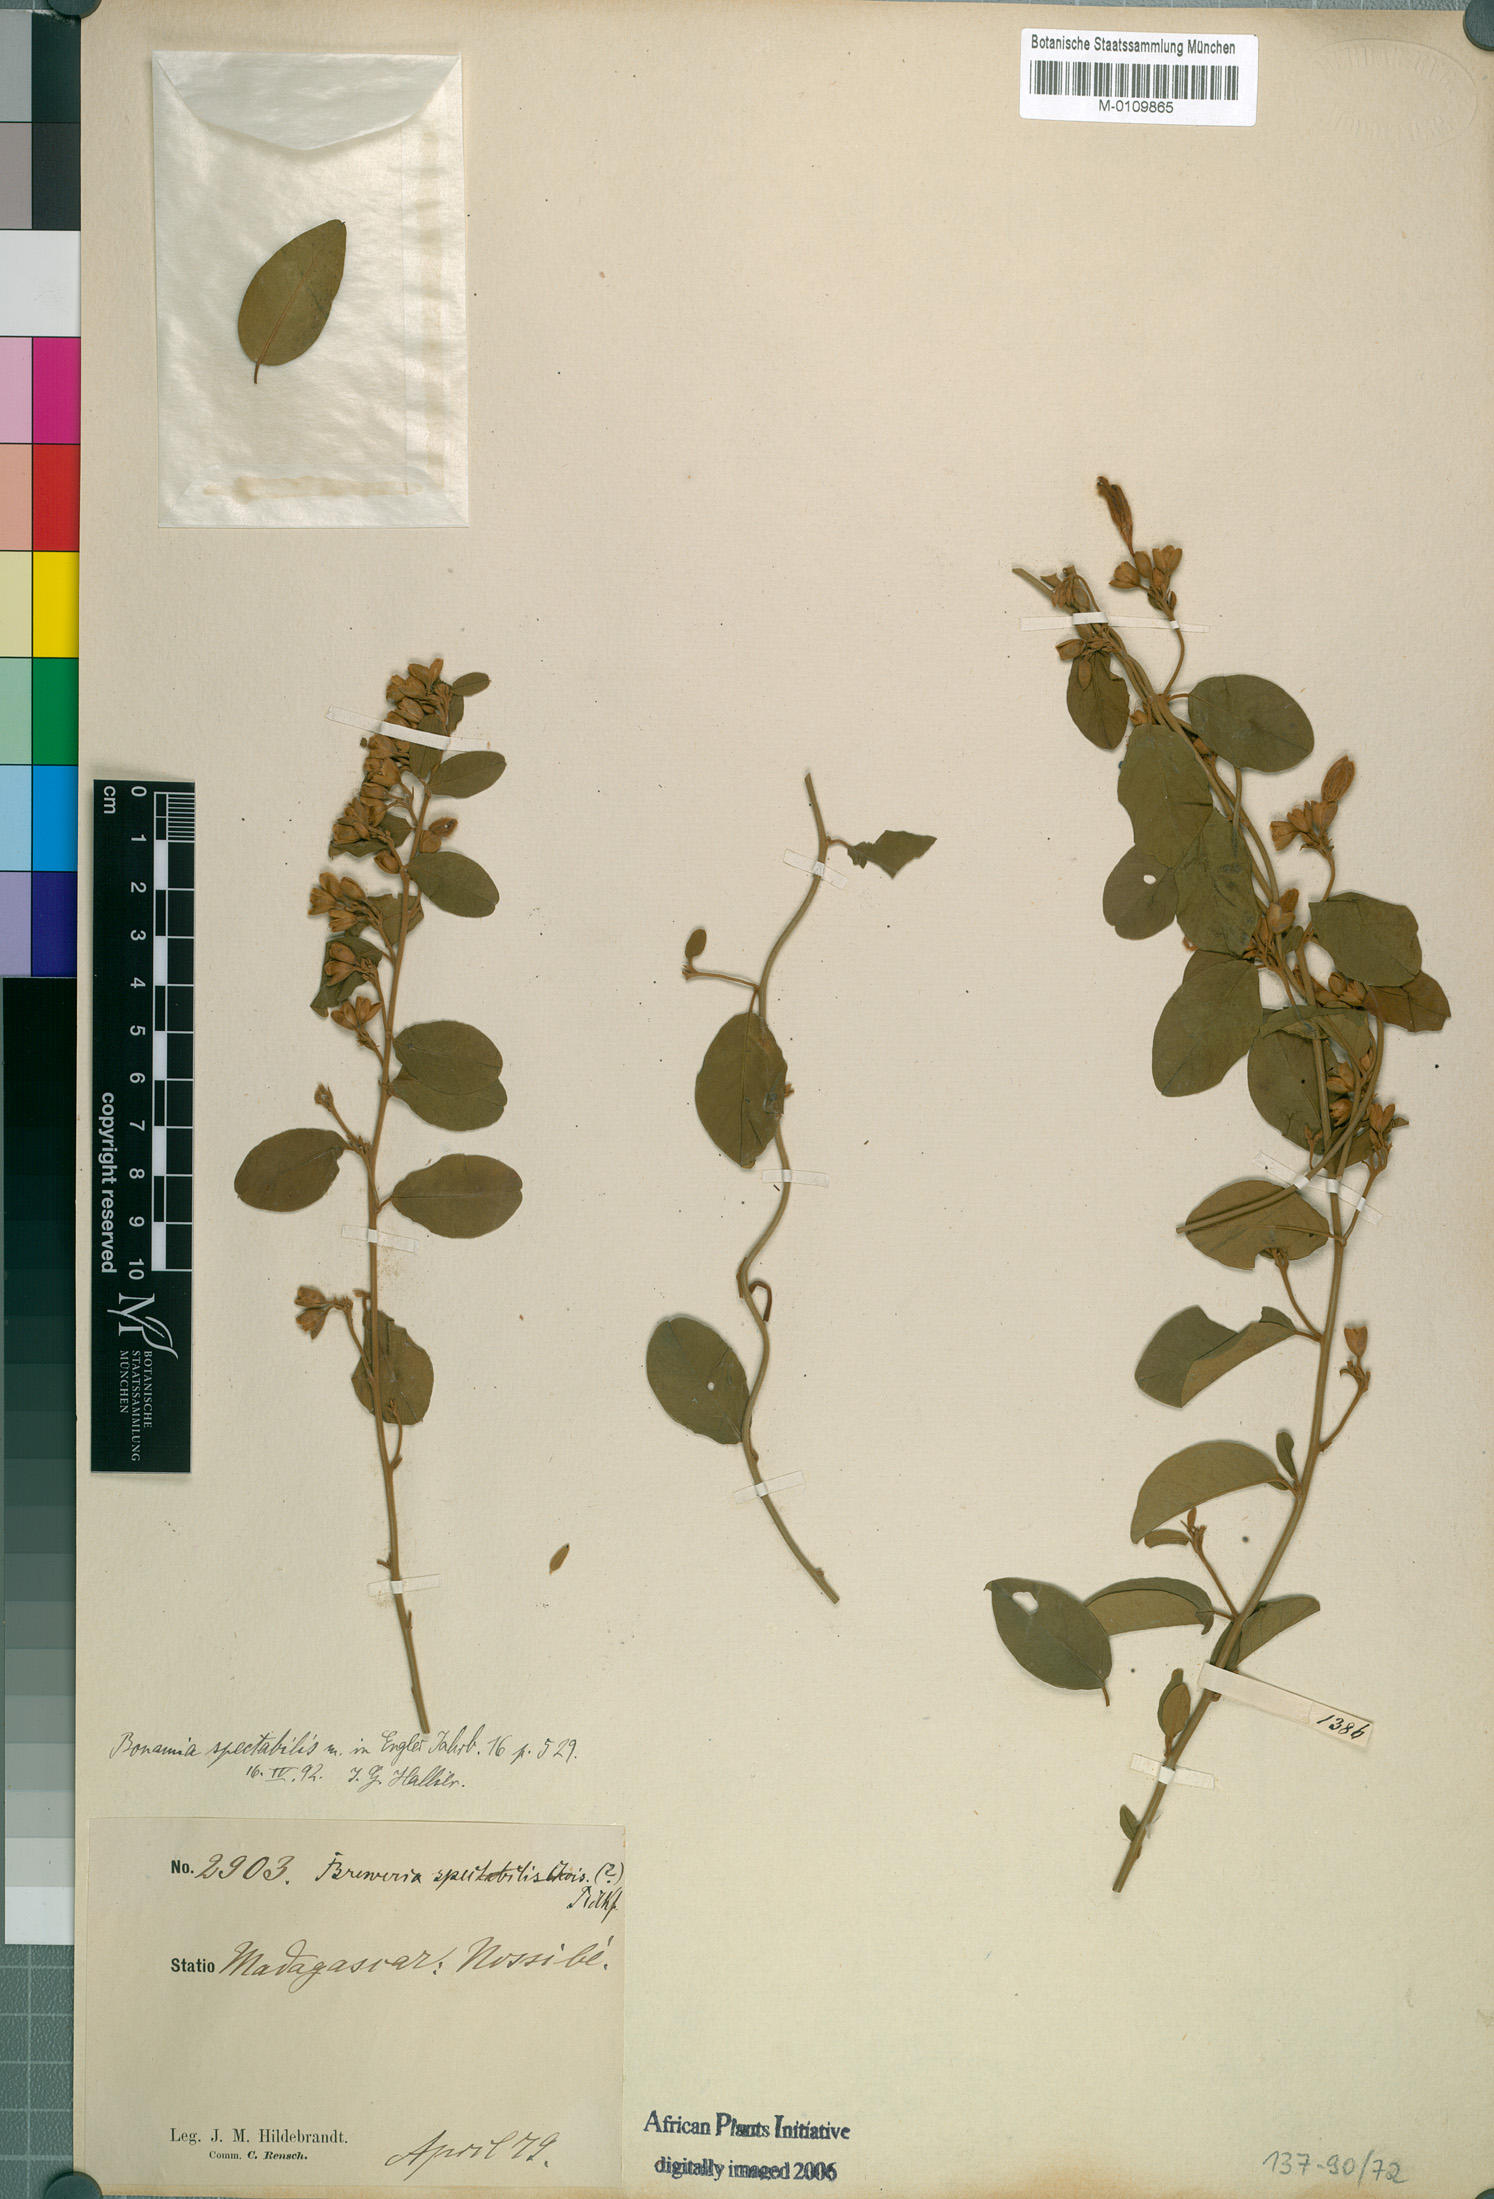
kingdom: Plantae
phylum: Tracheophyta
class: Magnoliopsida
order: Solanales
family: Convolvulaceae
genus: Bonamia
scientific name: Bonamia spectabilis
